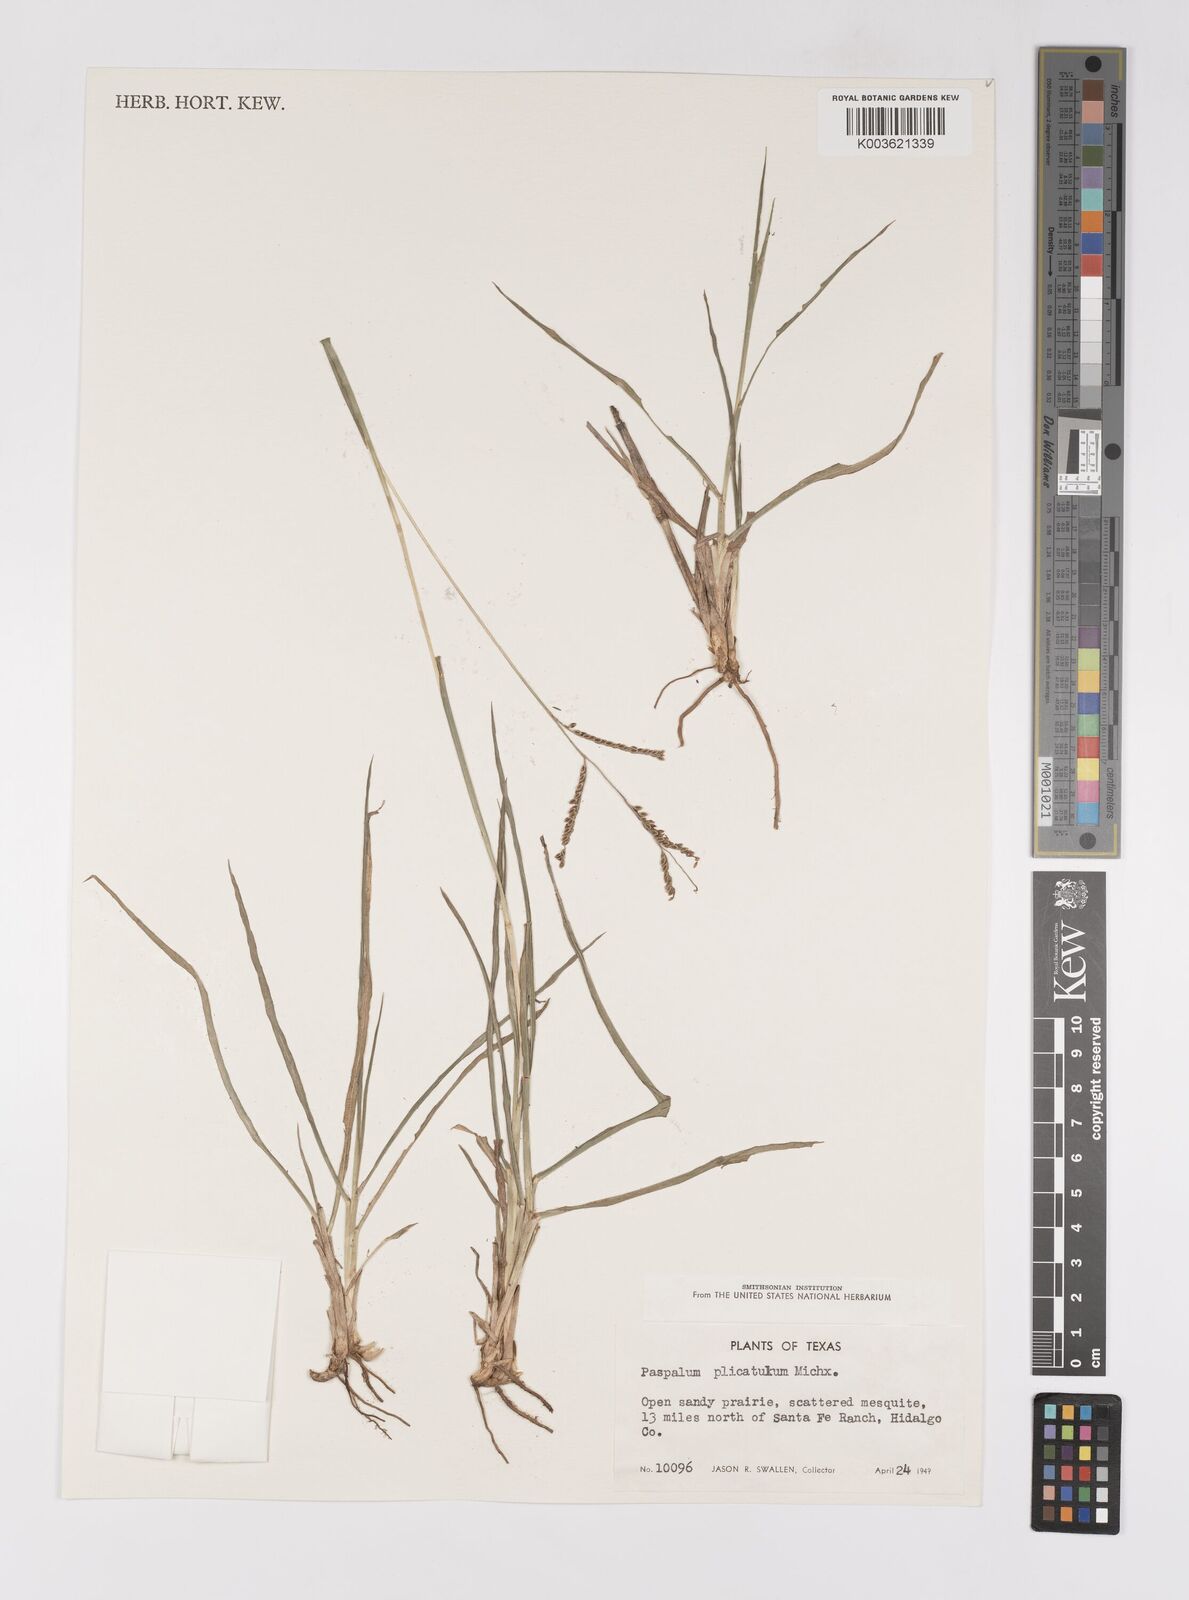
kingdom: Plantae
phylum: Tracheophyta
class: Liliopsida
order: Poales
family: Poaceae
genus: Paspalum
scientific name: Paspalum plicatulum
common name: Top paspalum
